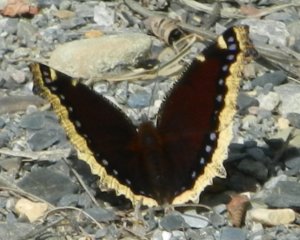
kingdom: Animalia
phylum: Arthropoda
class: Insecta
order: Lepidoptera
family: Nymphalidae
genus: Nymphalis
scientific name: Nymphalis antiopa
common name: Mourning Cloak
